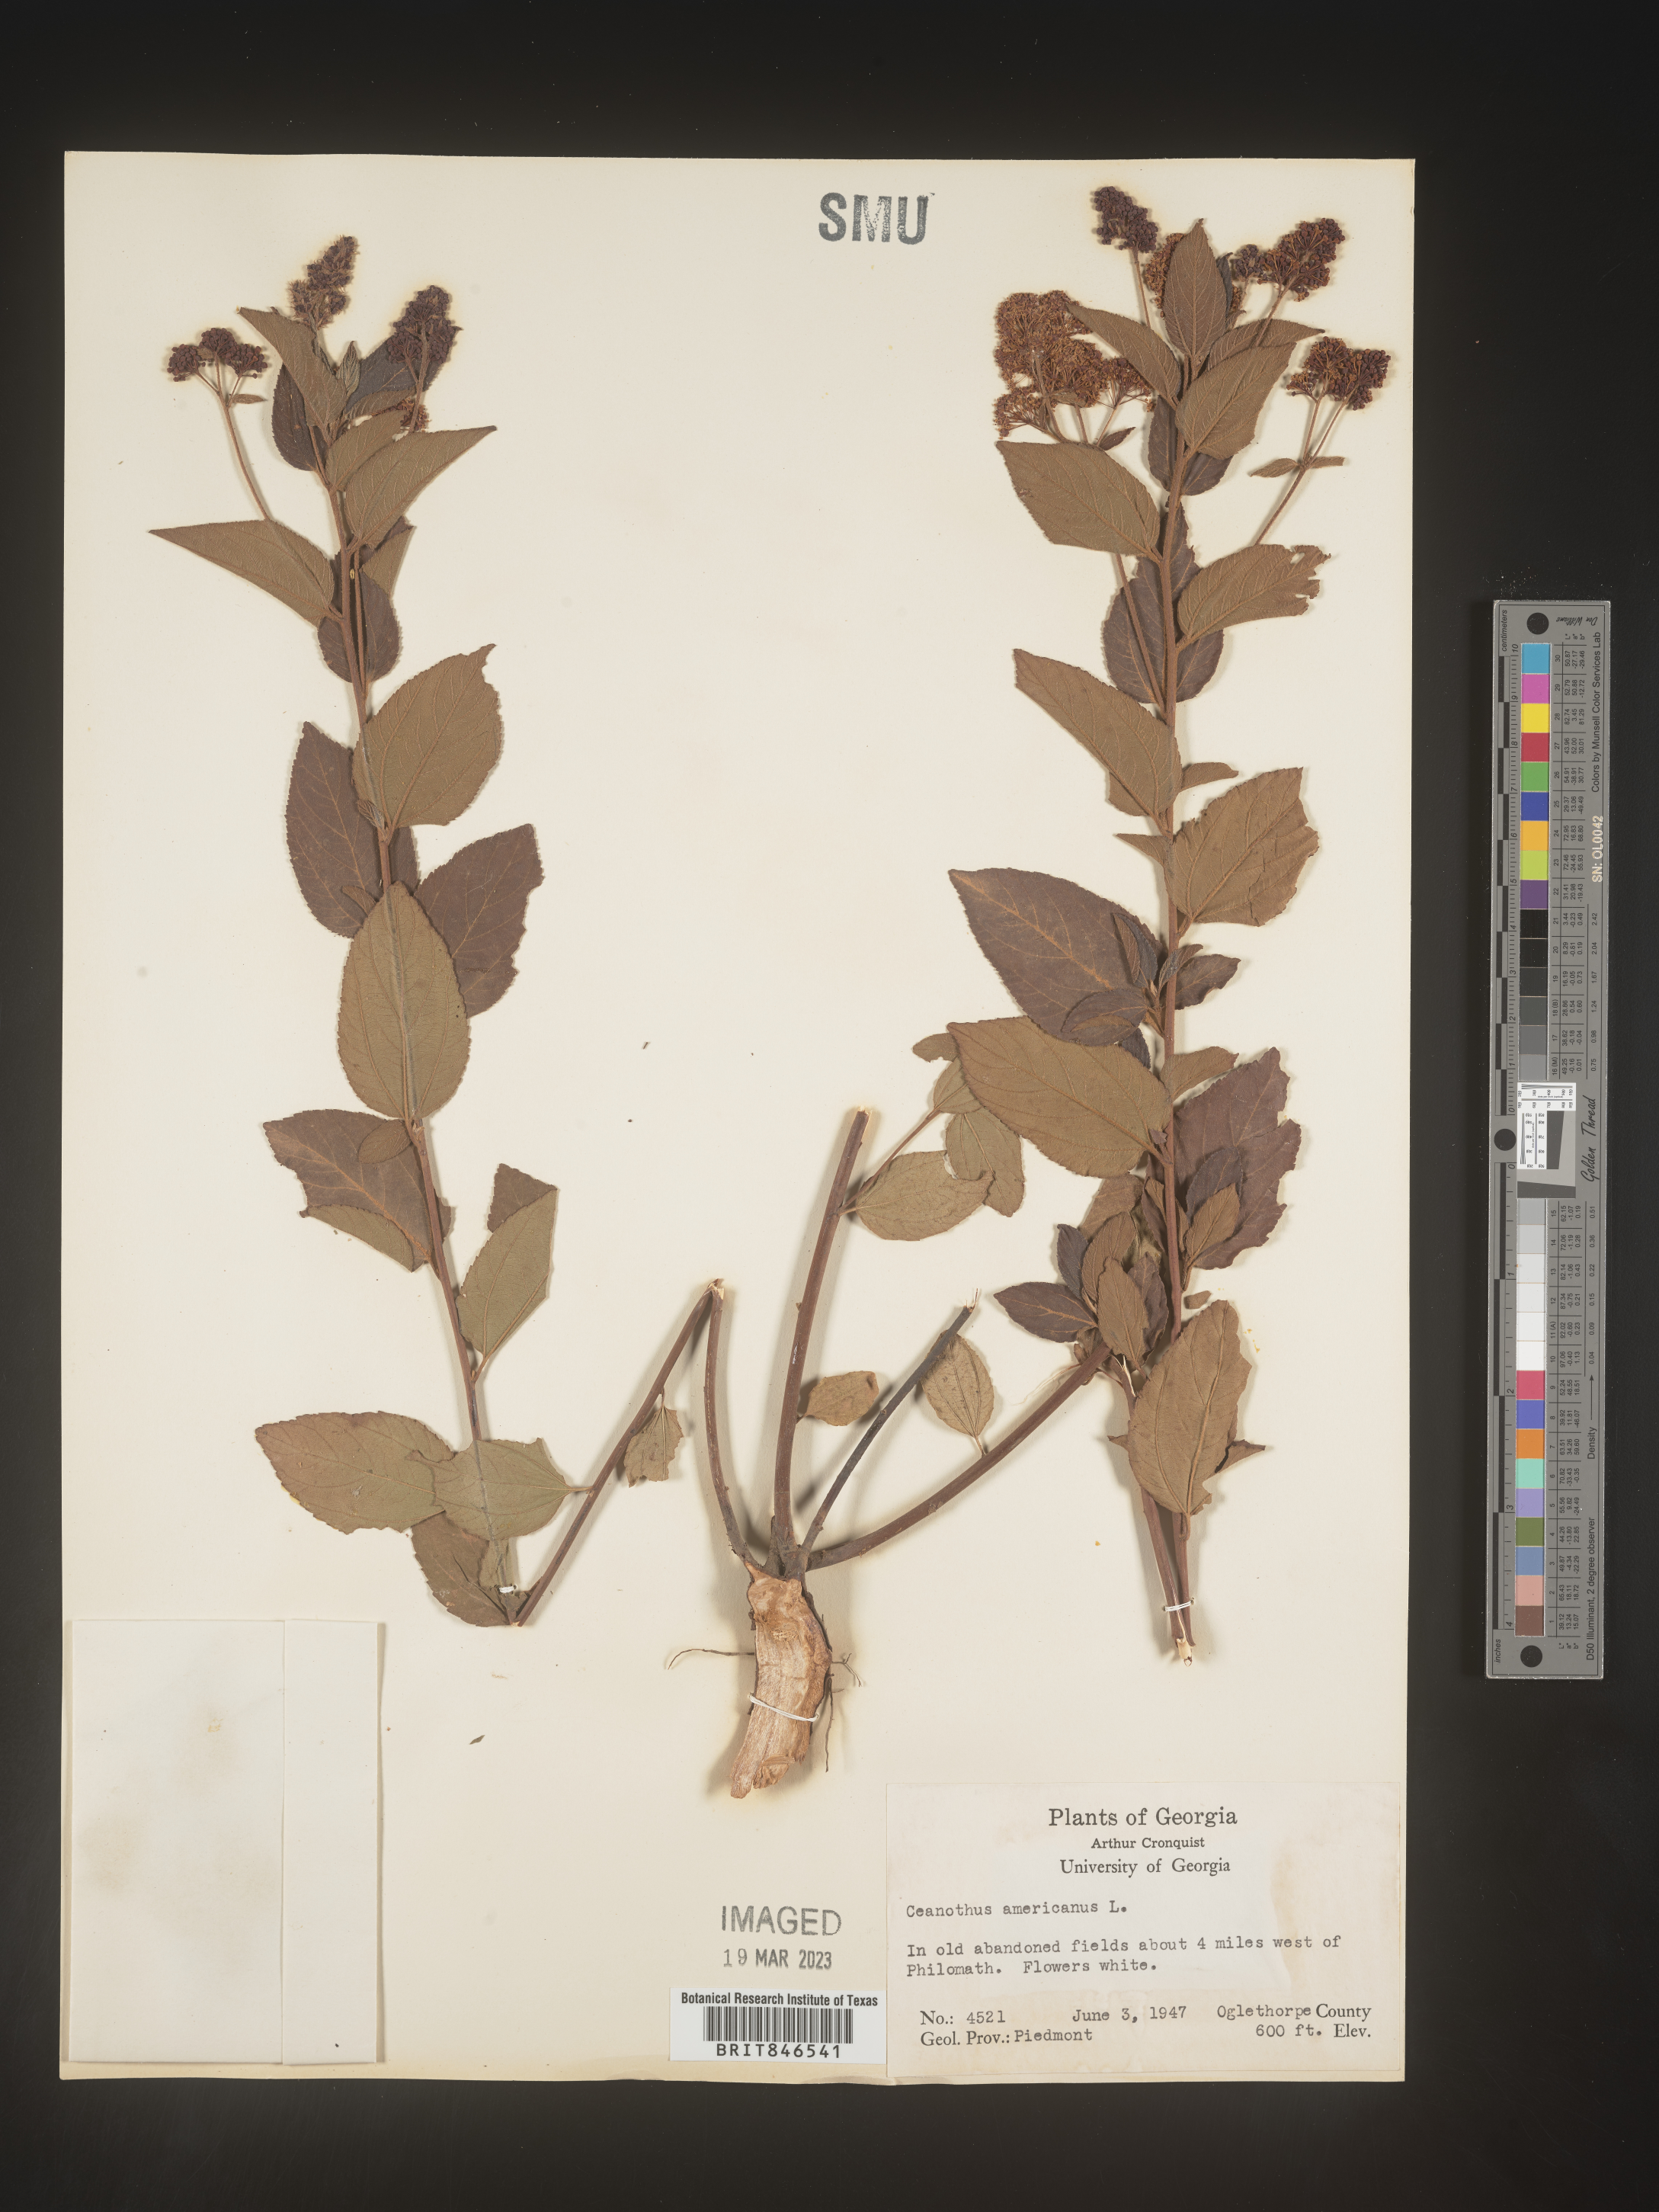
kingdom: Plantae
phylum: Tracheophyta
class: Magnoliopsida
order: Rosales
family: Rhamnaceae
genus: Ceanothus
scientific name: Ceanothus americanus
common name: Redroot
